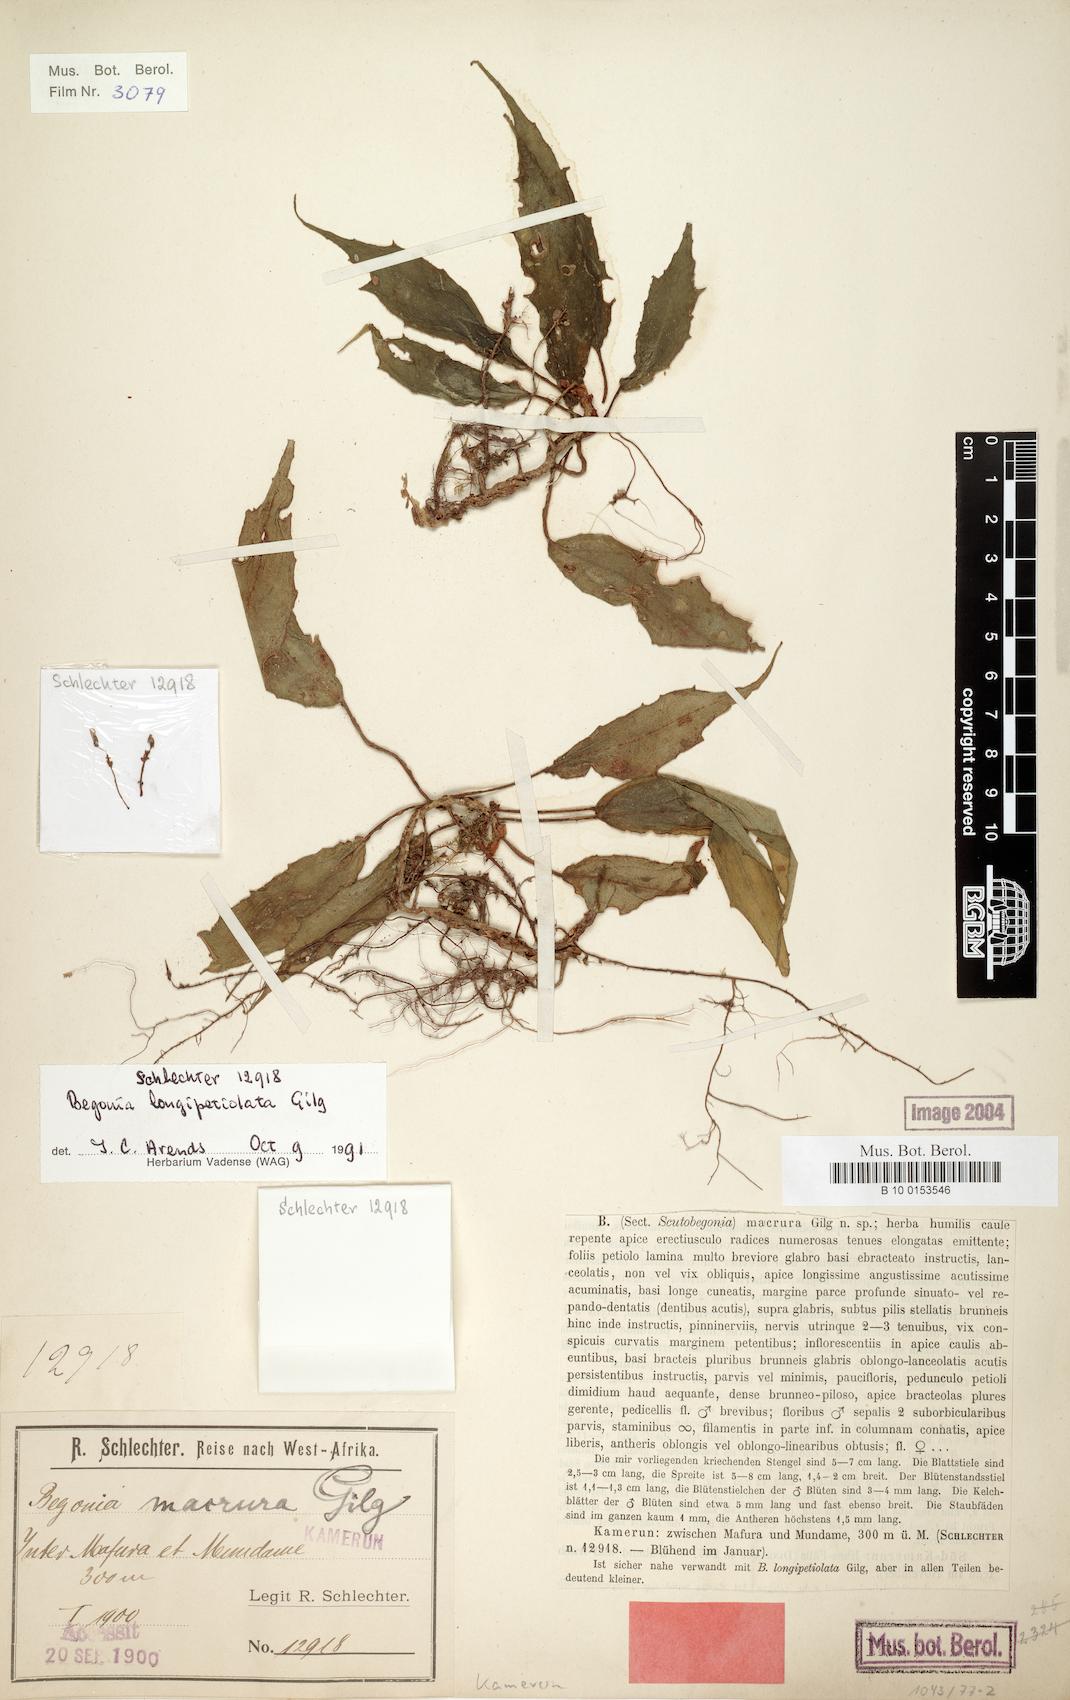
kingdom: Plantae
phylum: Tracheophyta
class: Magnoliopsida
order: Cucurbitales
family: Begoniaceae
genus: Begonia
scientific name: Begonia longipetiolata
